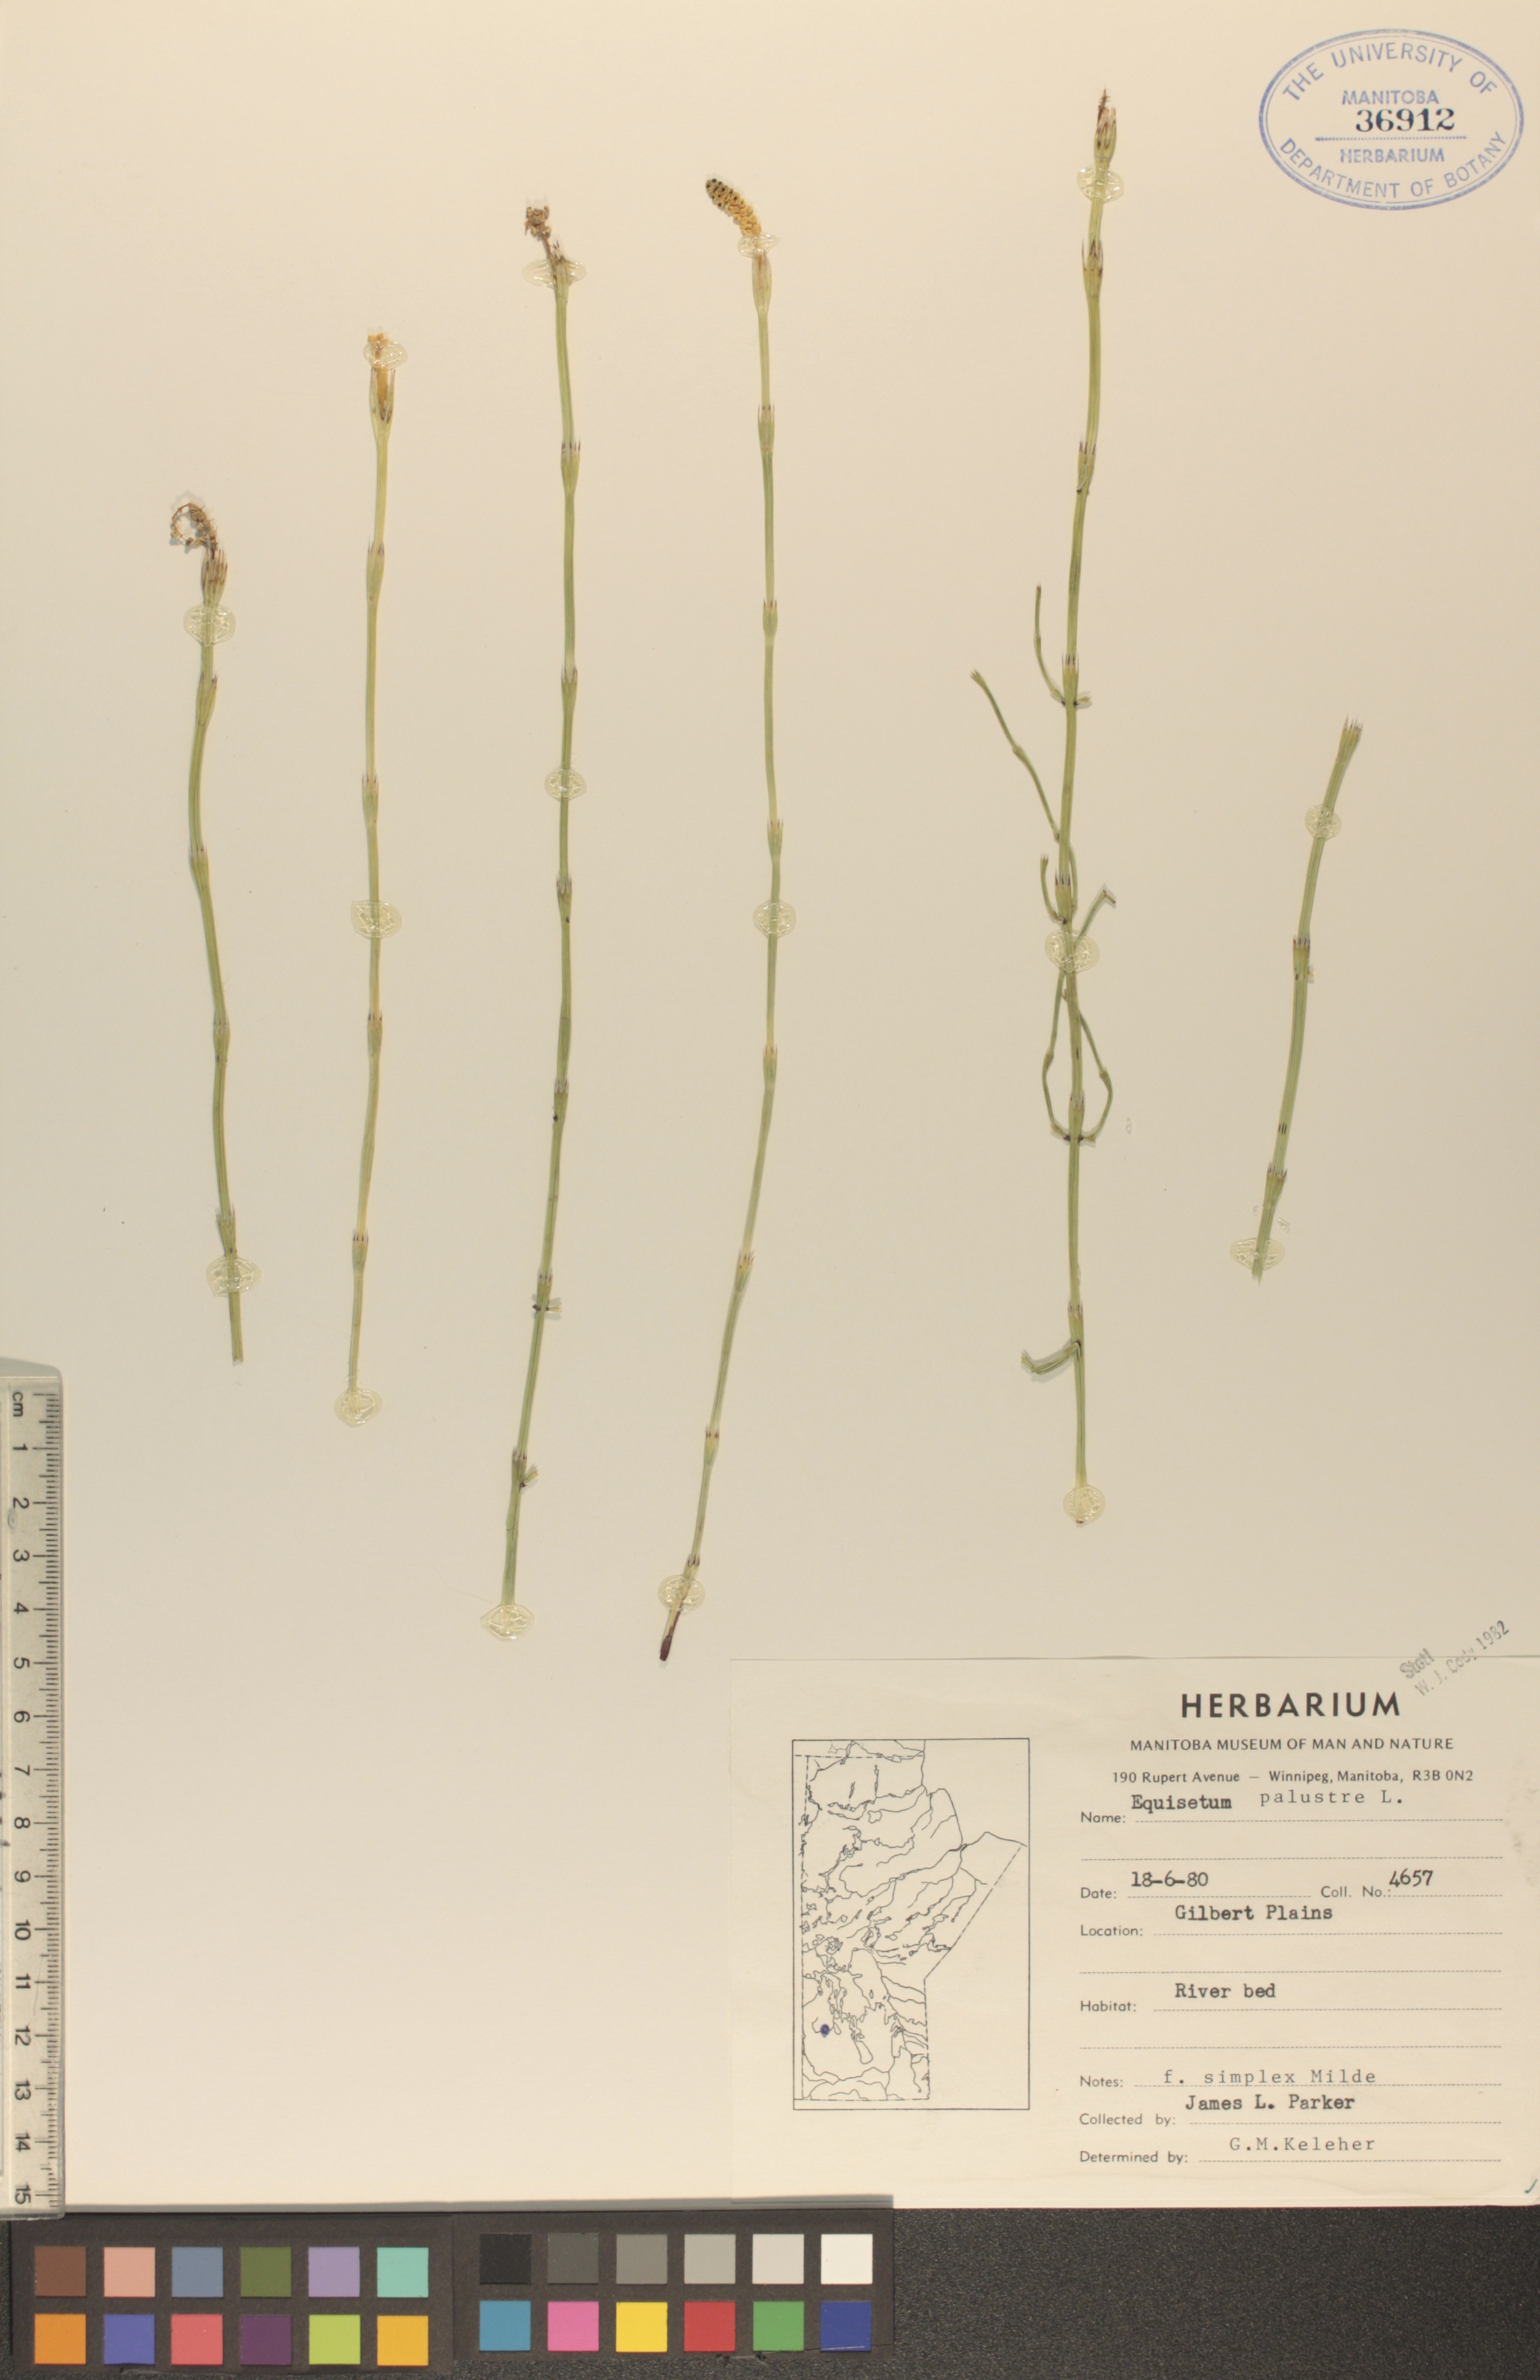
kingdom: Plantae
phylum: Tracheophyta
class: Polypodiopsida
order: Equisetales
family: Equisetaceae
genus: Equisetum
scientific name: Equisetum palustre
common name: Marsh horsetail
